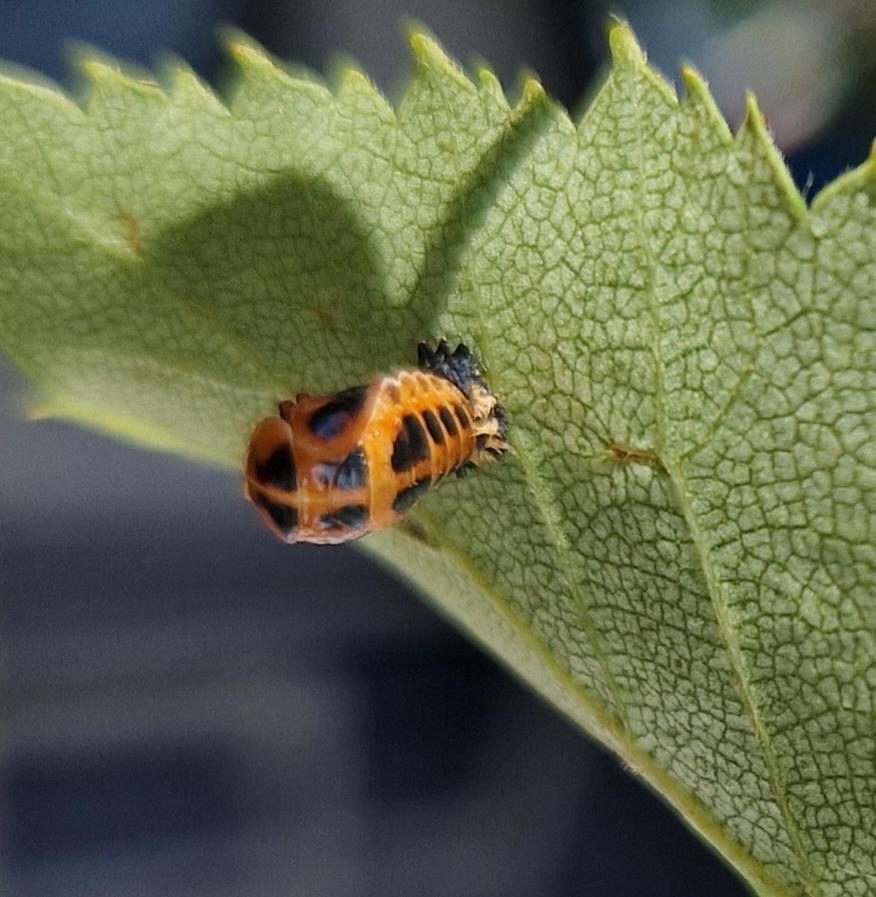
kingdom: Animalia
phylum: Arthropoda
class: Insecta
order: Coleoptera
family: Coccinellidae
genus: Harmonia
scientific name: Harmonia axyridis
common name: Harlekinmariehøne
